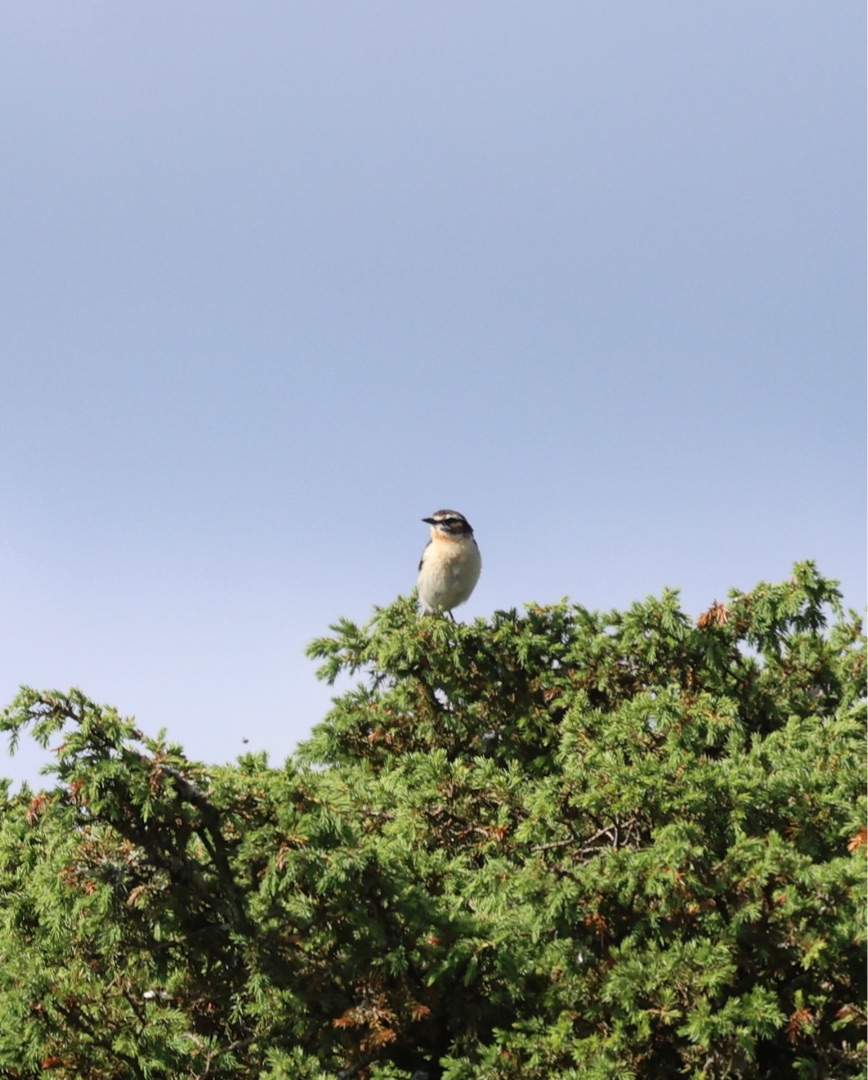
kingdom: Animalia
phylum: Chordata
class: Aves
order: Passeriformes
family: Muscicapidae
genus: Saxicola
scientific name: Saxicola rubetra
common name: Bynkefugl
